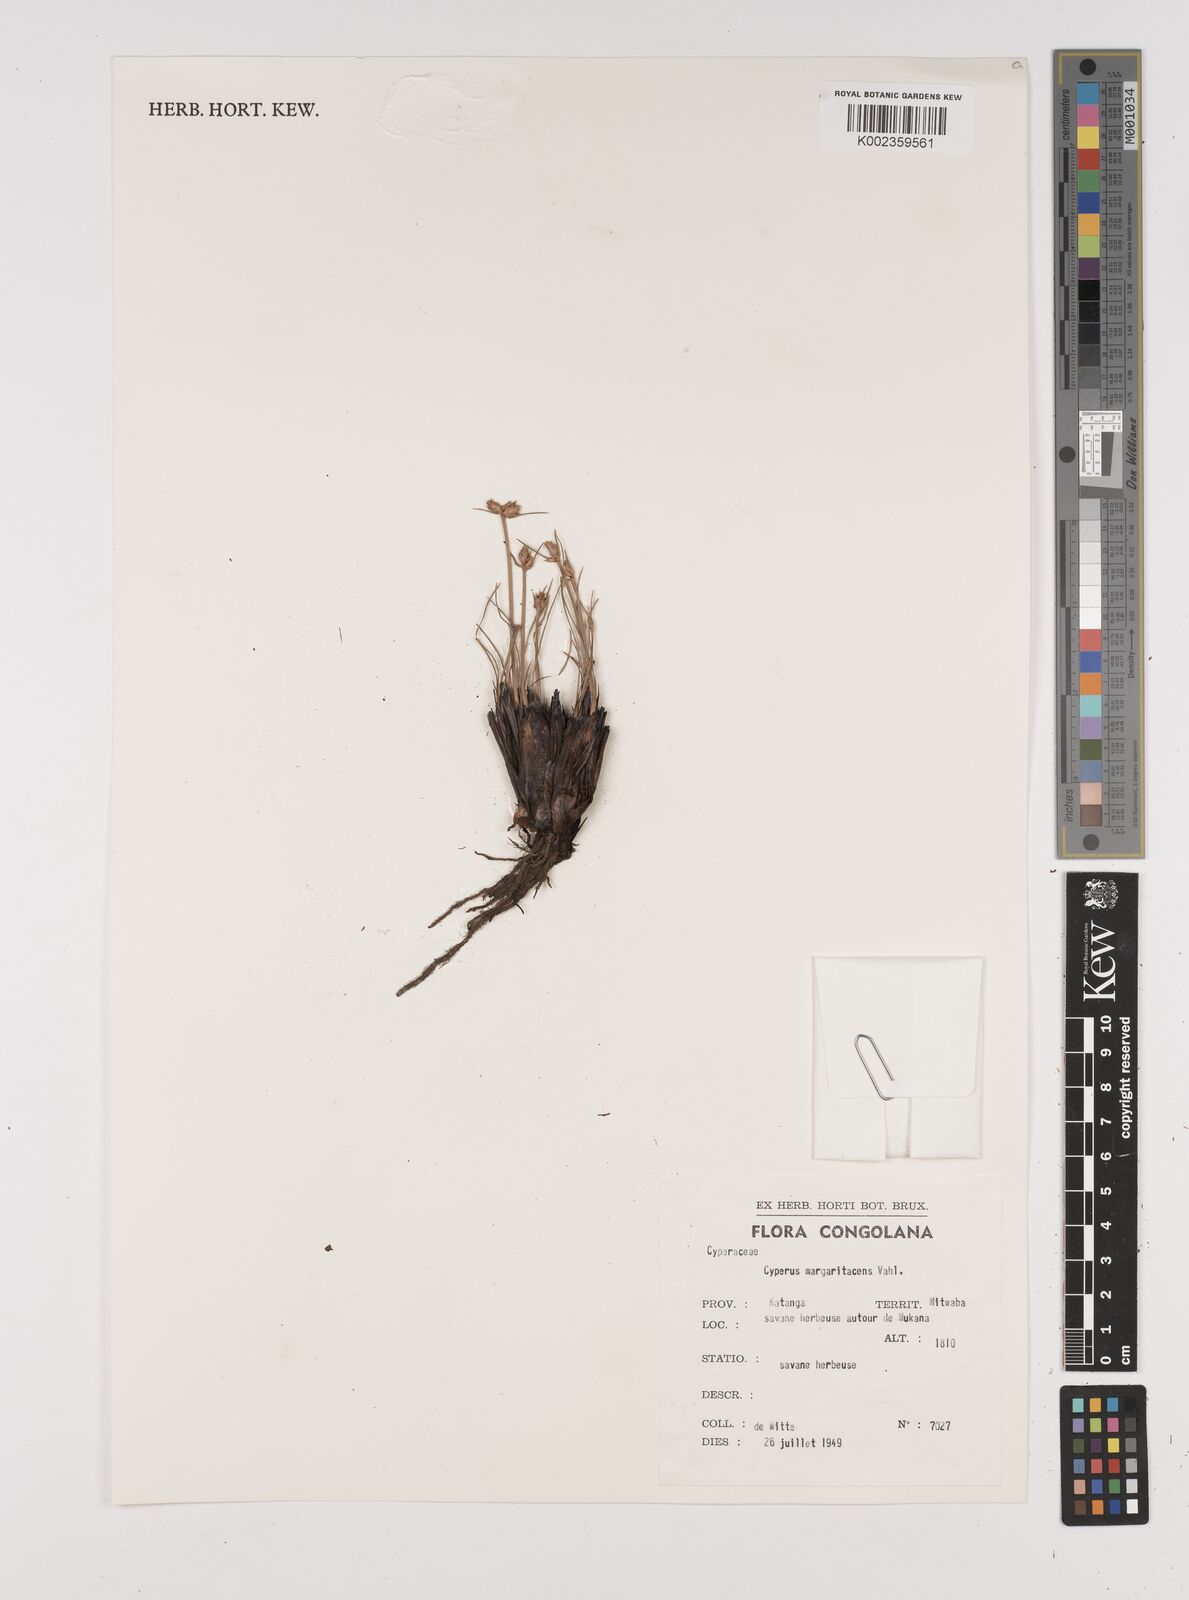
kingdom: Plantae
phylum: Tracheophyta
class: Liliopsida
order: Poales
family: Cyperaceae
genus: Cyperus
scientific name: Cyperus margaritaceus
